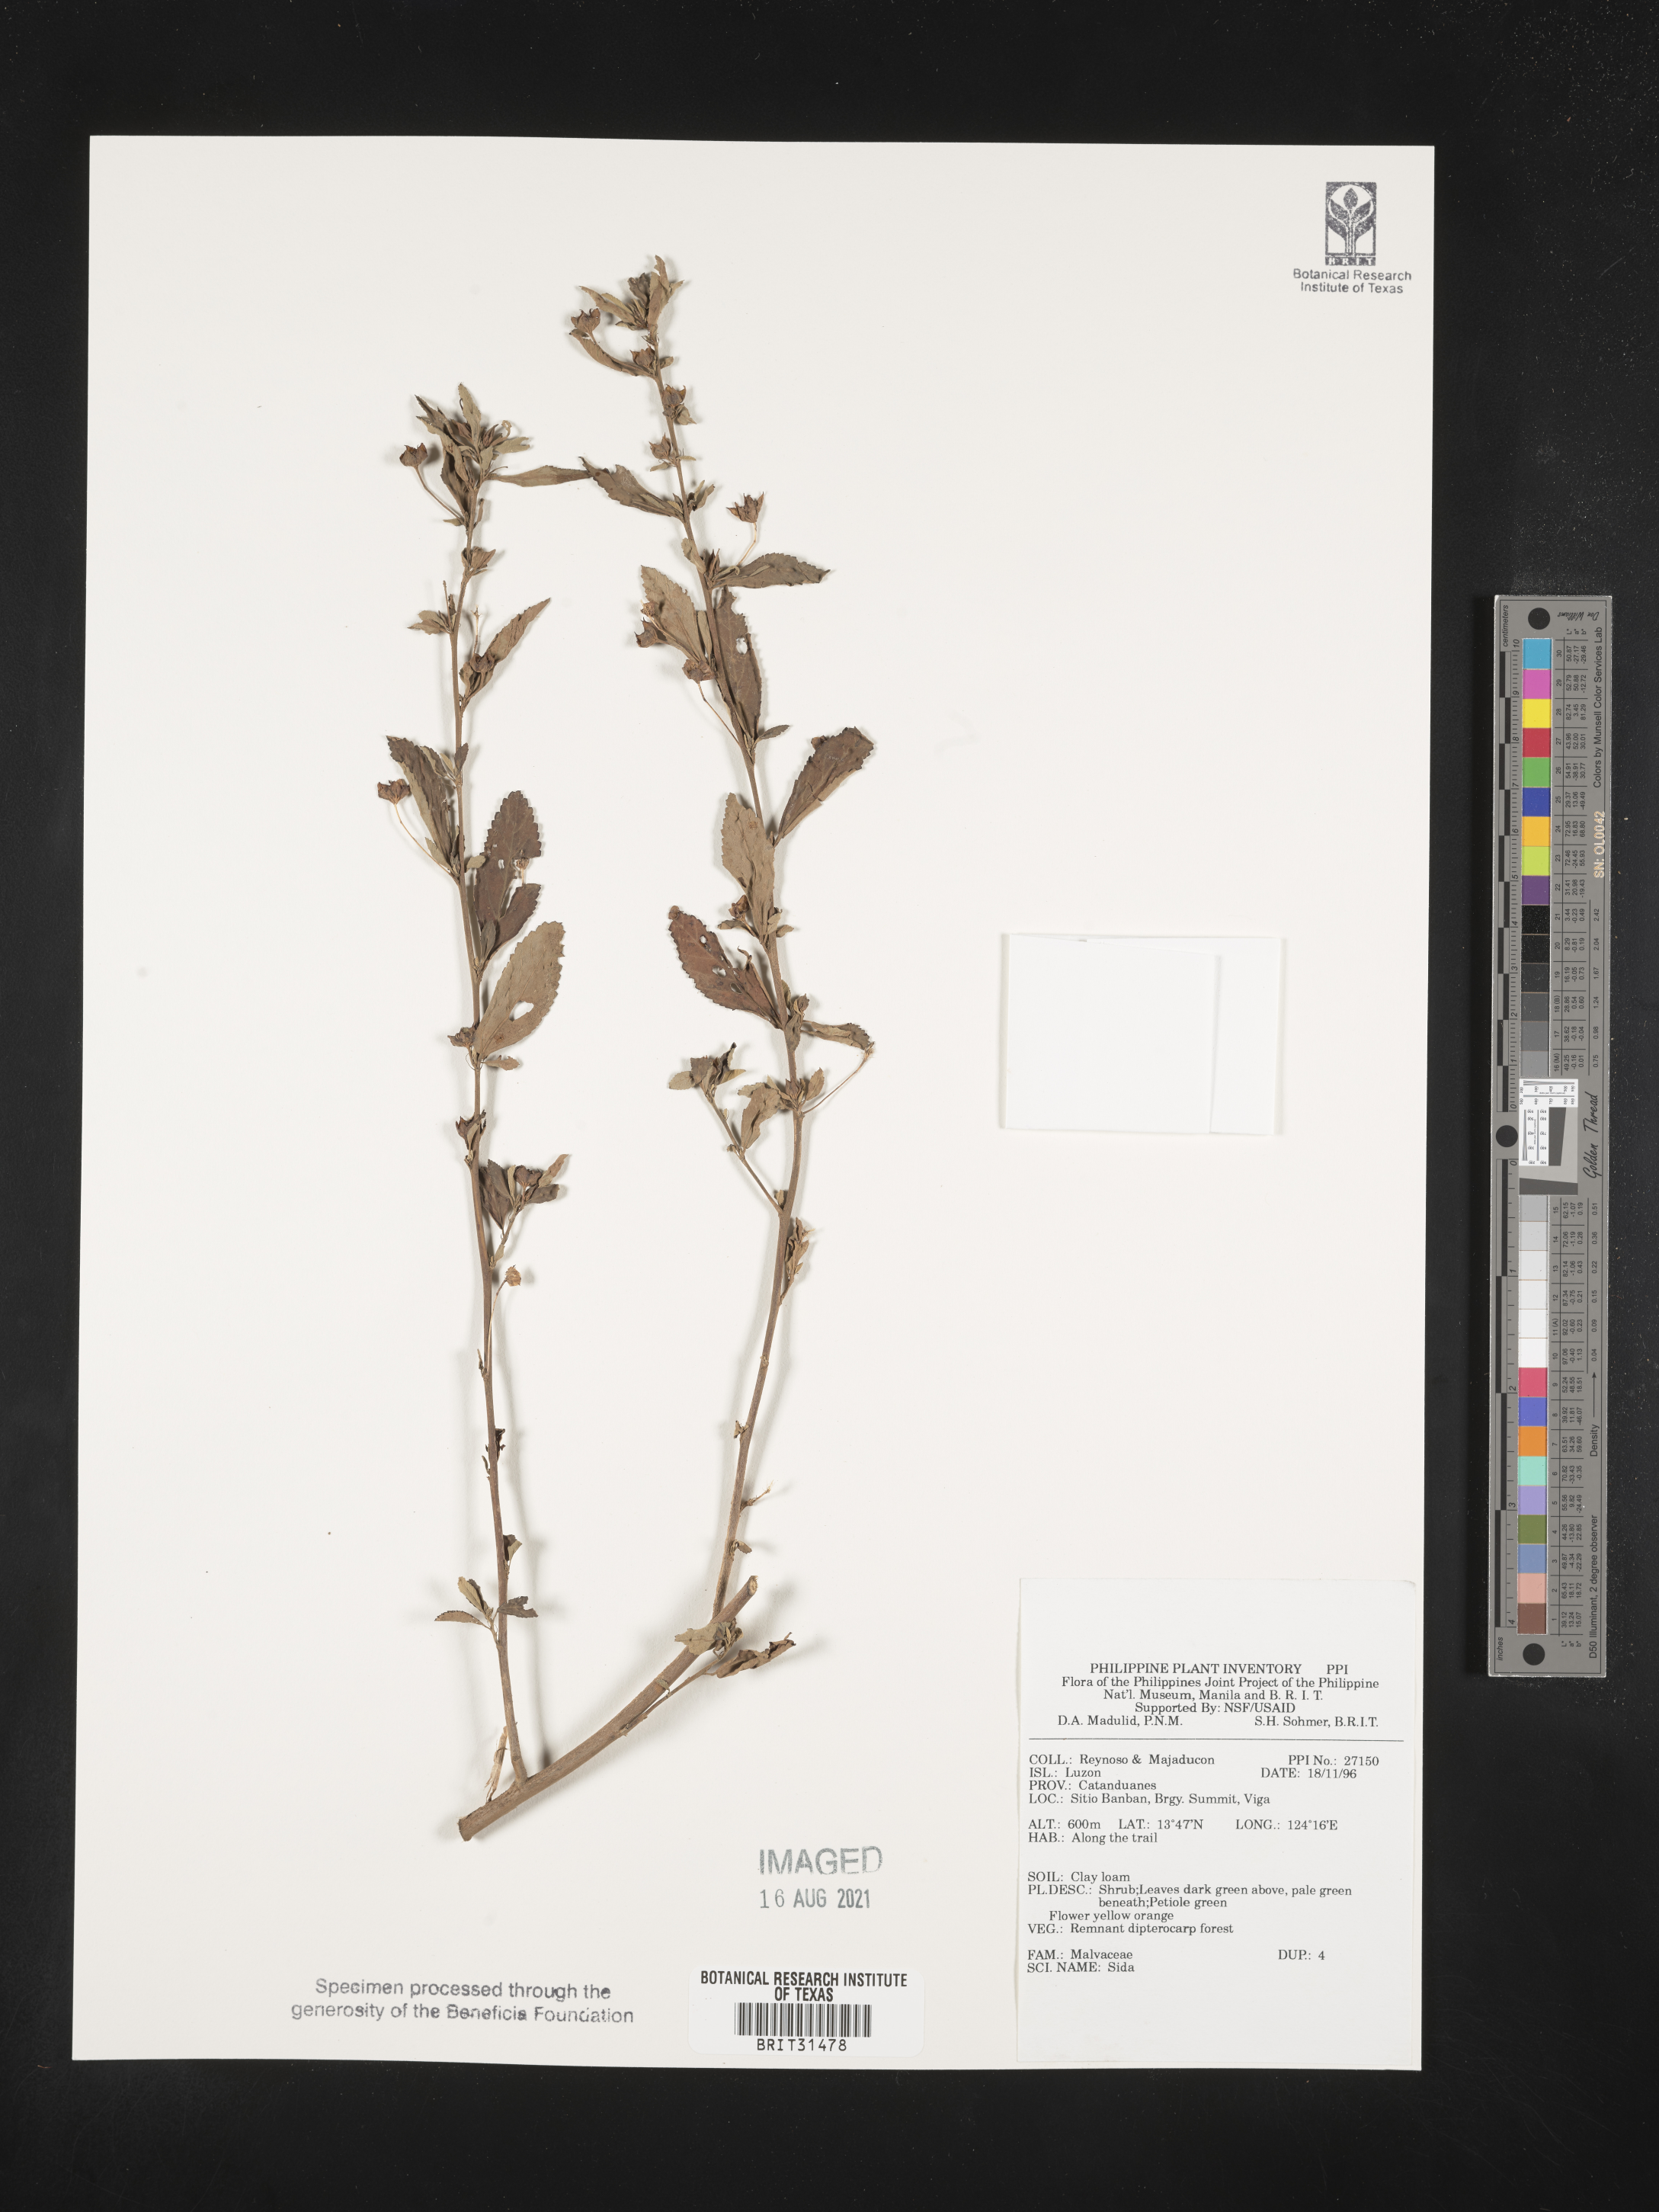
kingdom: Plantae
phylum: Tracheophyta
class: Magnoliopsida
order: Malvales
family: Malvaceae
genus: Sida
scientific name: Sida
